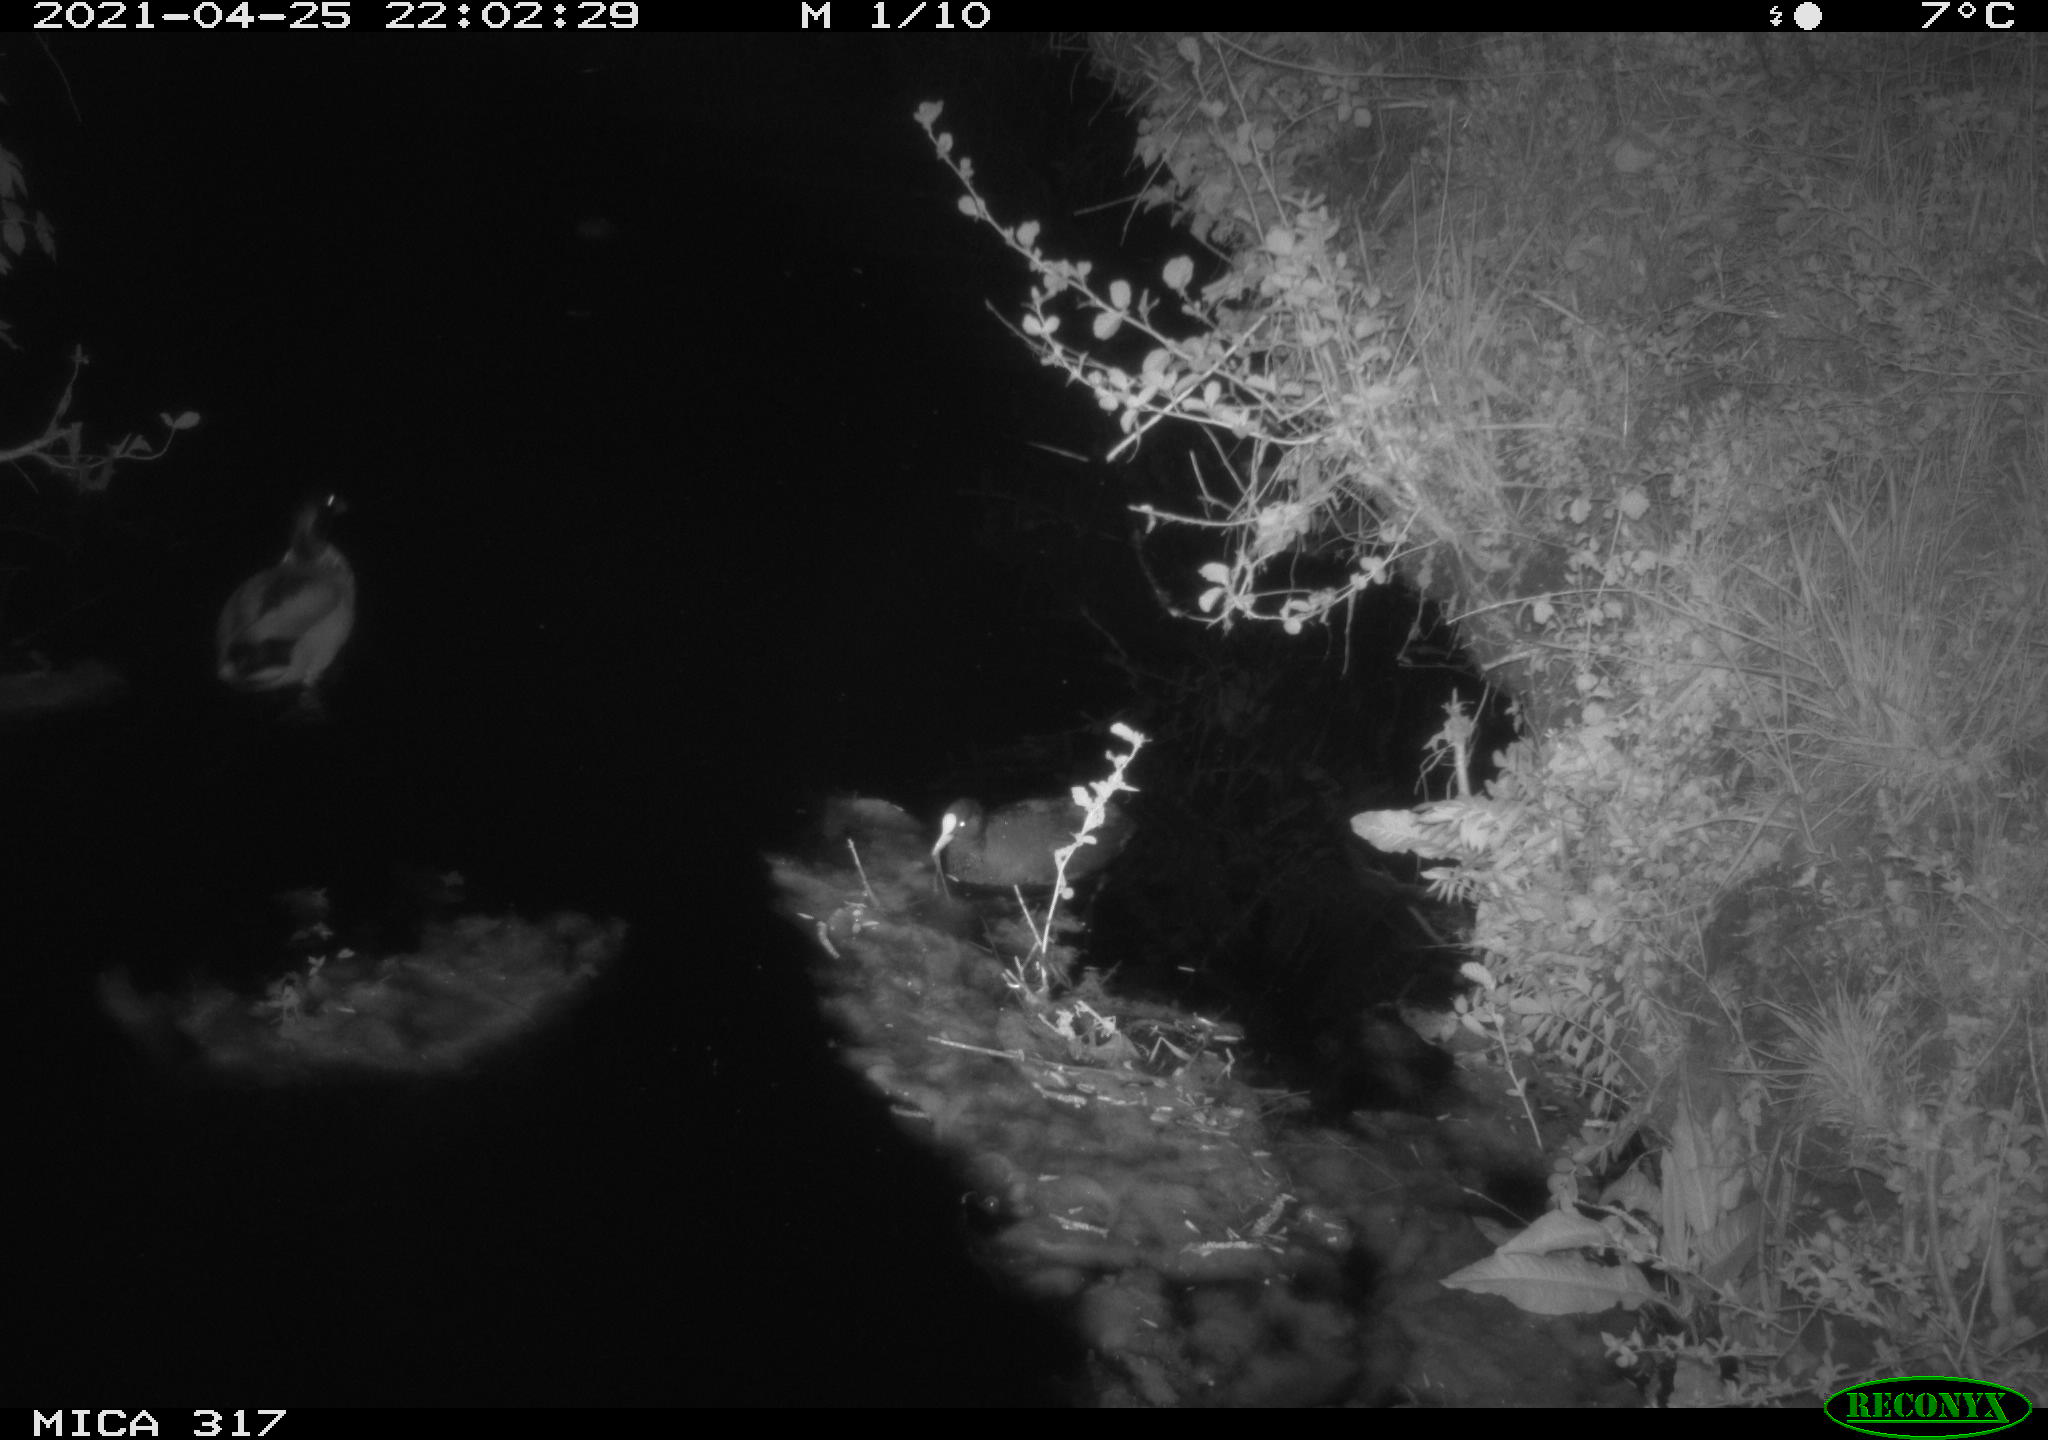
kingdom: Animalia
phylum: Chordata
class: Aves
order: Anseriformes
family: Anatidae
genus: Anas
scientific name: Anas
